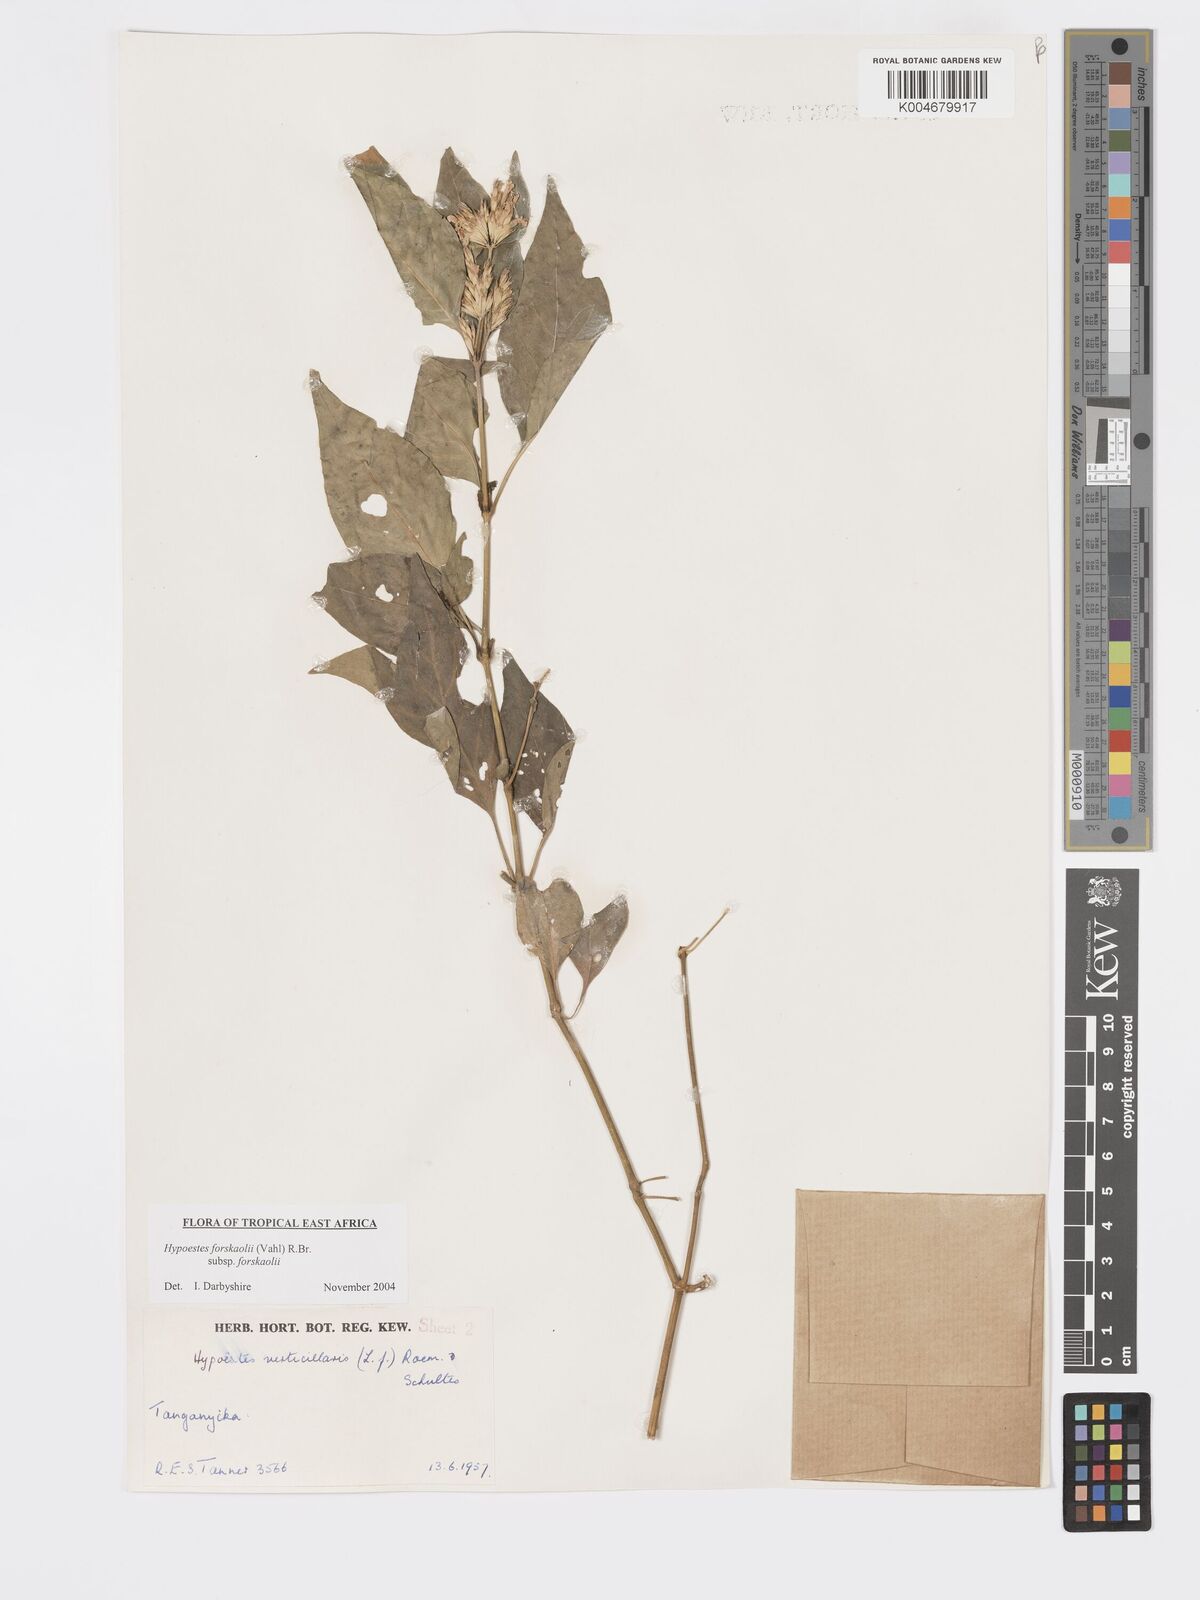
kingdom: Plantae
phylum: Tracheophyta
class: Magnoliopsida
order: Lamiales
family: Acanthaceae
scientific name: Acanthaceae
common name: Acanthaceae
